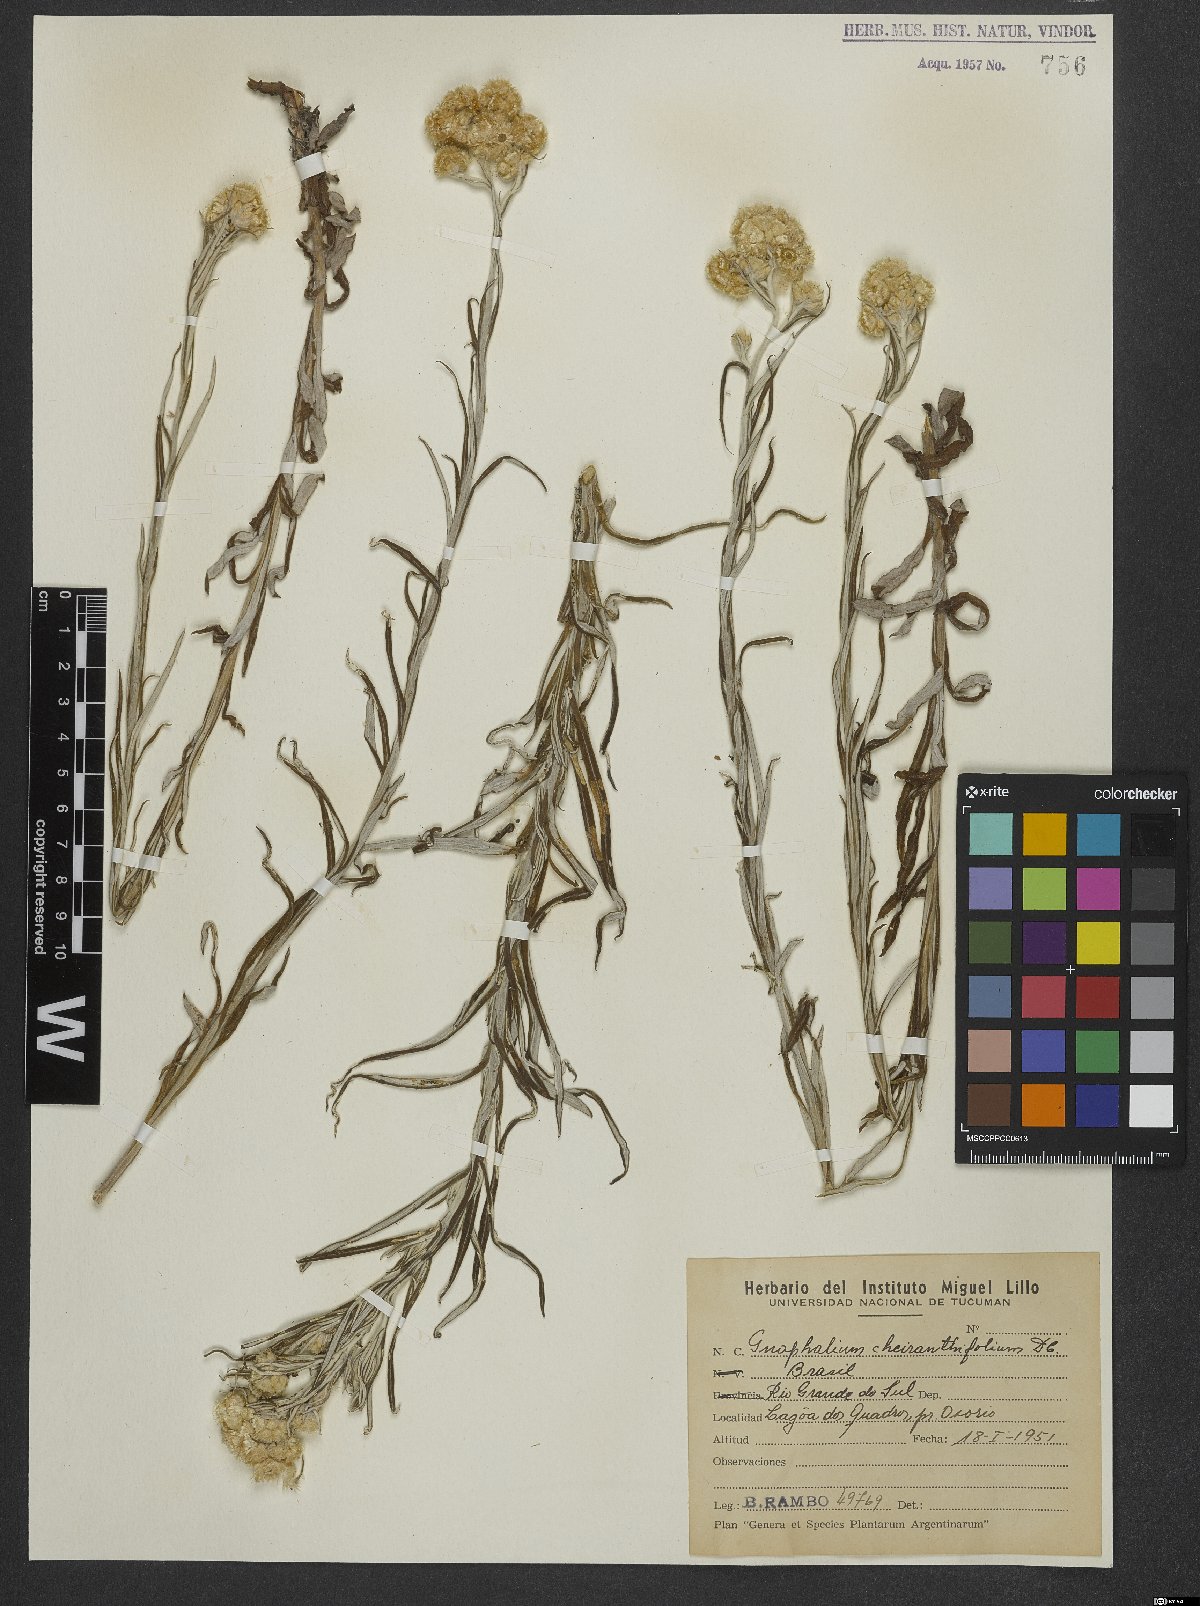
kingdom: Plantae
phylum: Tracheophyta
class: Magnoliopsida
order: Asterales
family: Asteraceae
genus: Pseudognaphalium
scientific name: Pseudognaphalium cheiranthifolium
